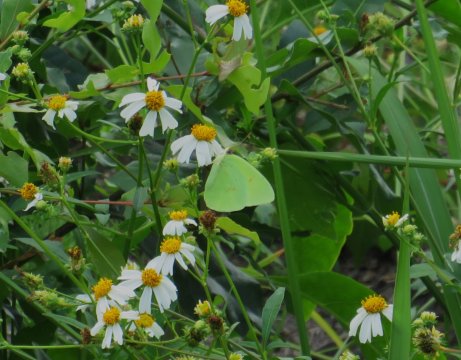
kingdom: Animalia
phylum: Arthropoda
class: Insecta
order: Lepidoptera
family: Pieridae
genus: Phoebis
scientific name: Phoebis sennae
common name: Cloudless Sulphur
